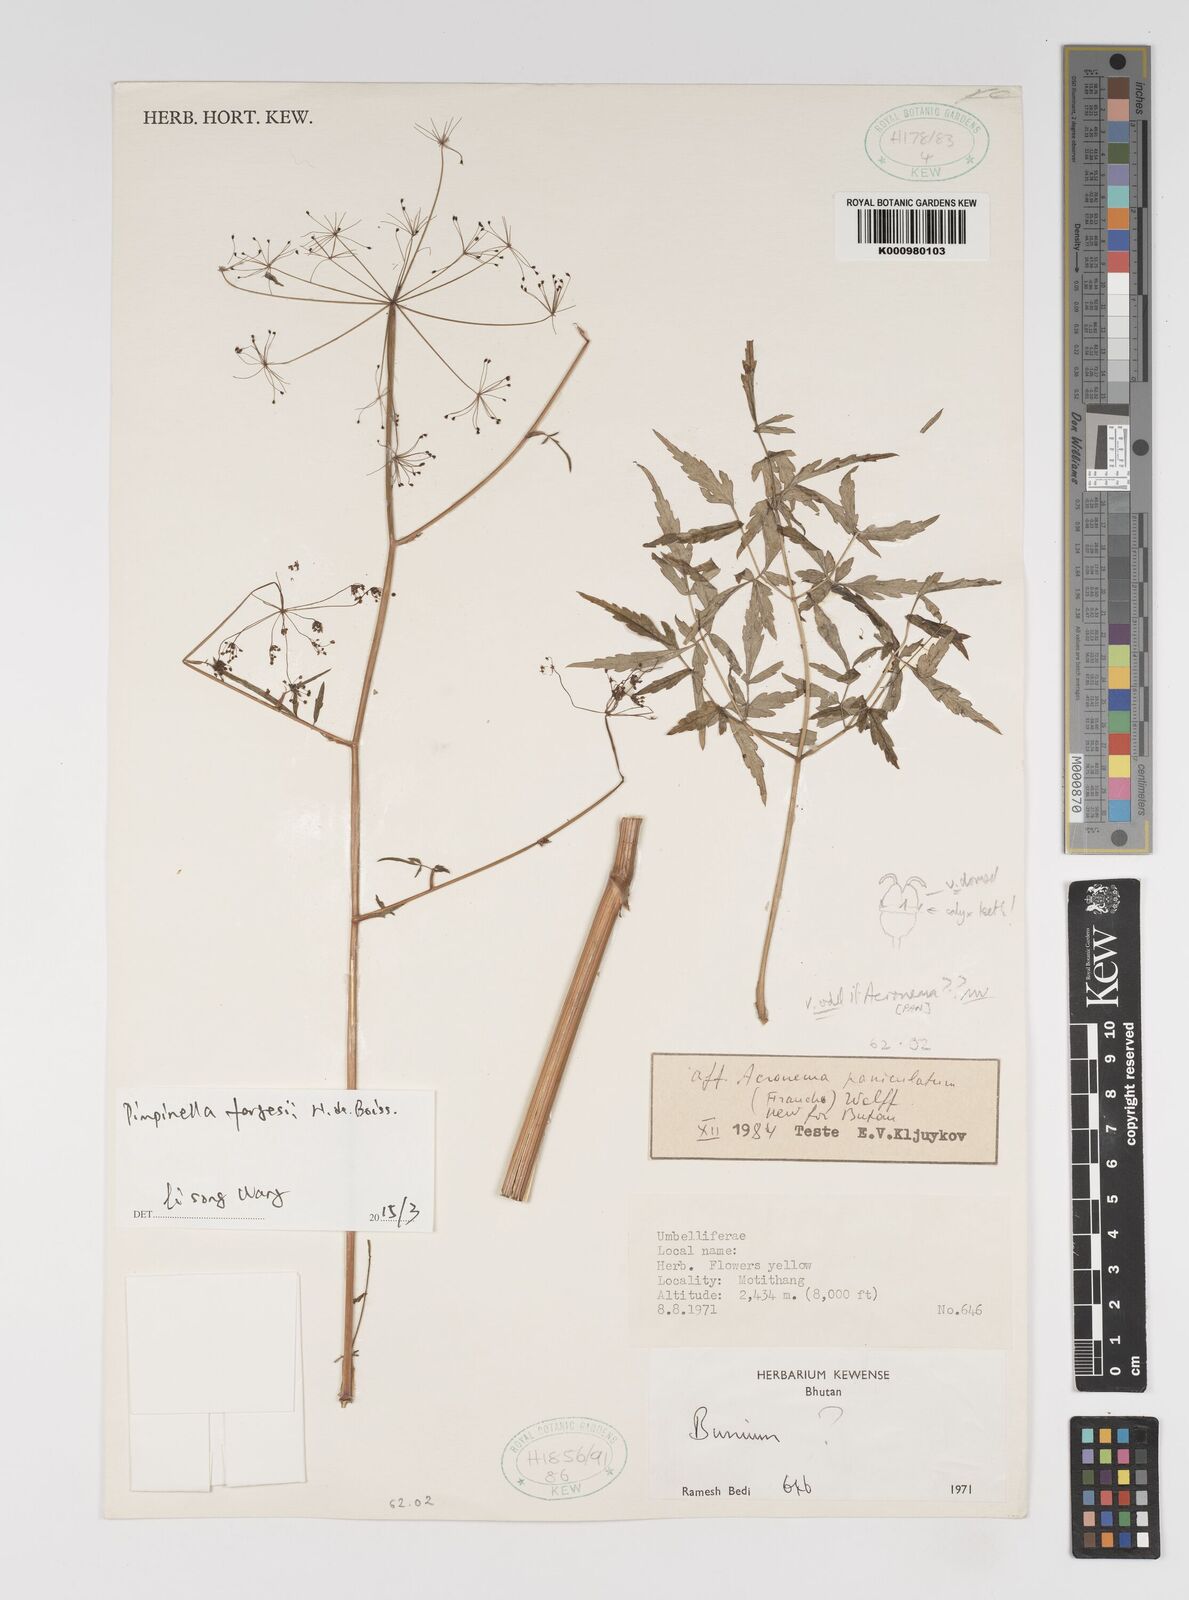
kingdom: Plantae
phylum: Tracheophyta
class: Magnoliopsida
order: Apiales
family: Apiaceae
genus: Pimpinella
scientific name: Pimpinella fargesii
